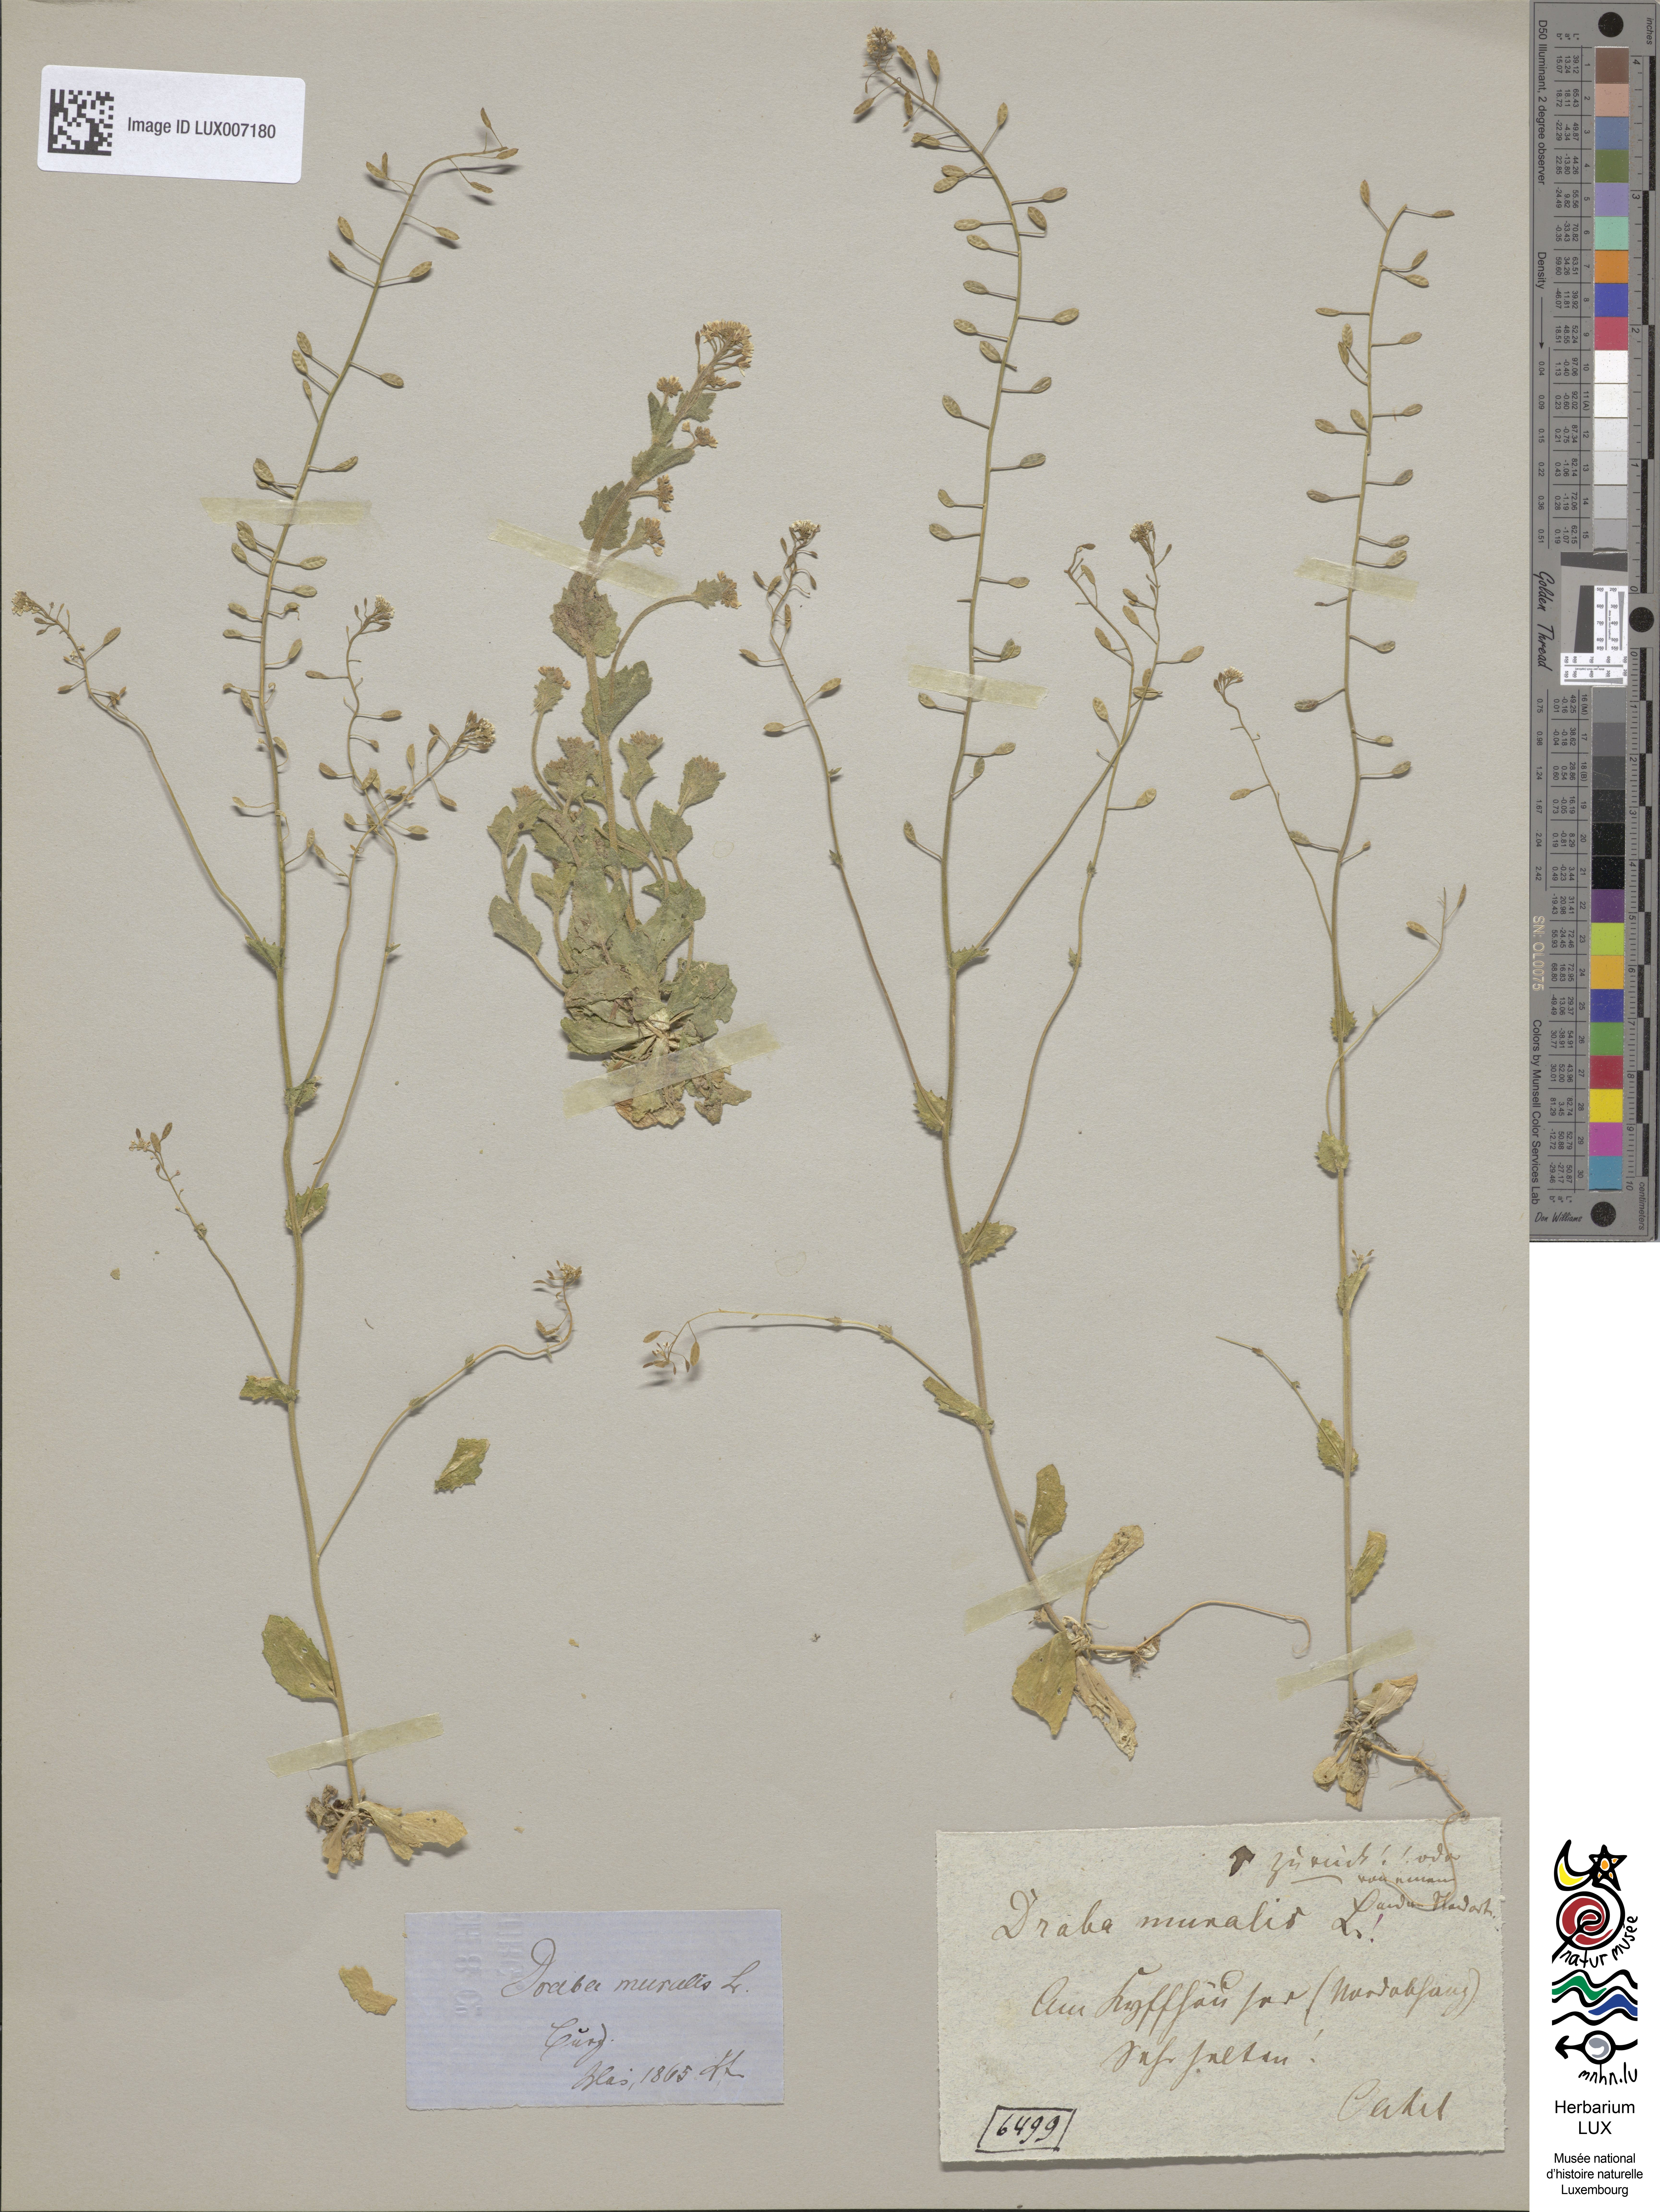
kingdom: Plantae
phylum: Tracheophyta
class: Magnoliopsida
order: Brassicales
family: Brassicaceae
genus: Drabella
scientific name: Drabella muralis
